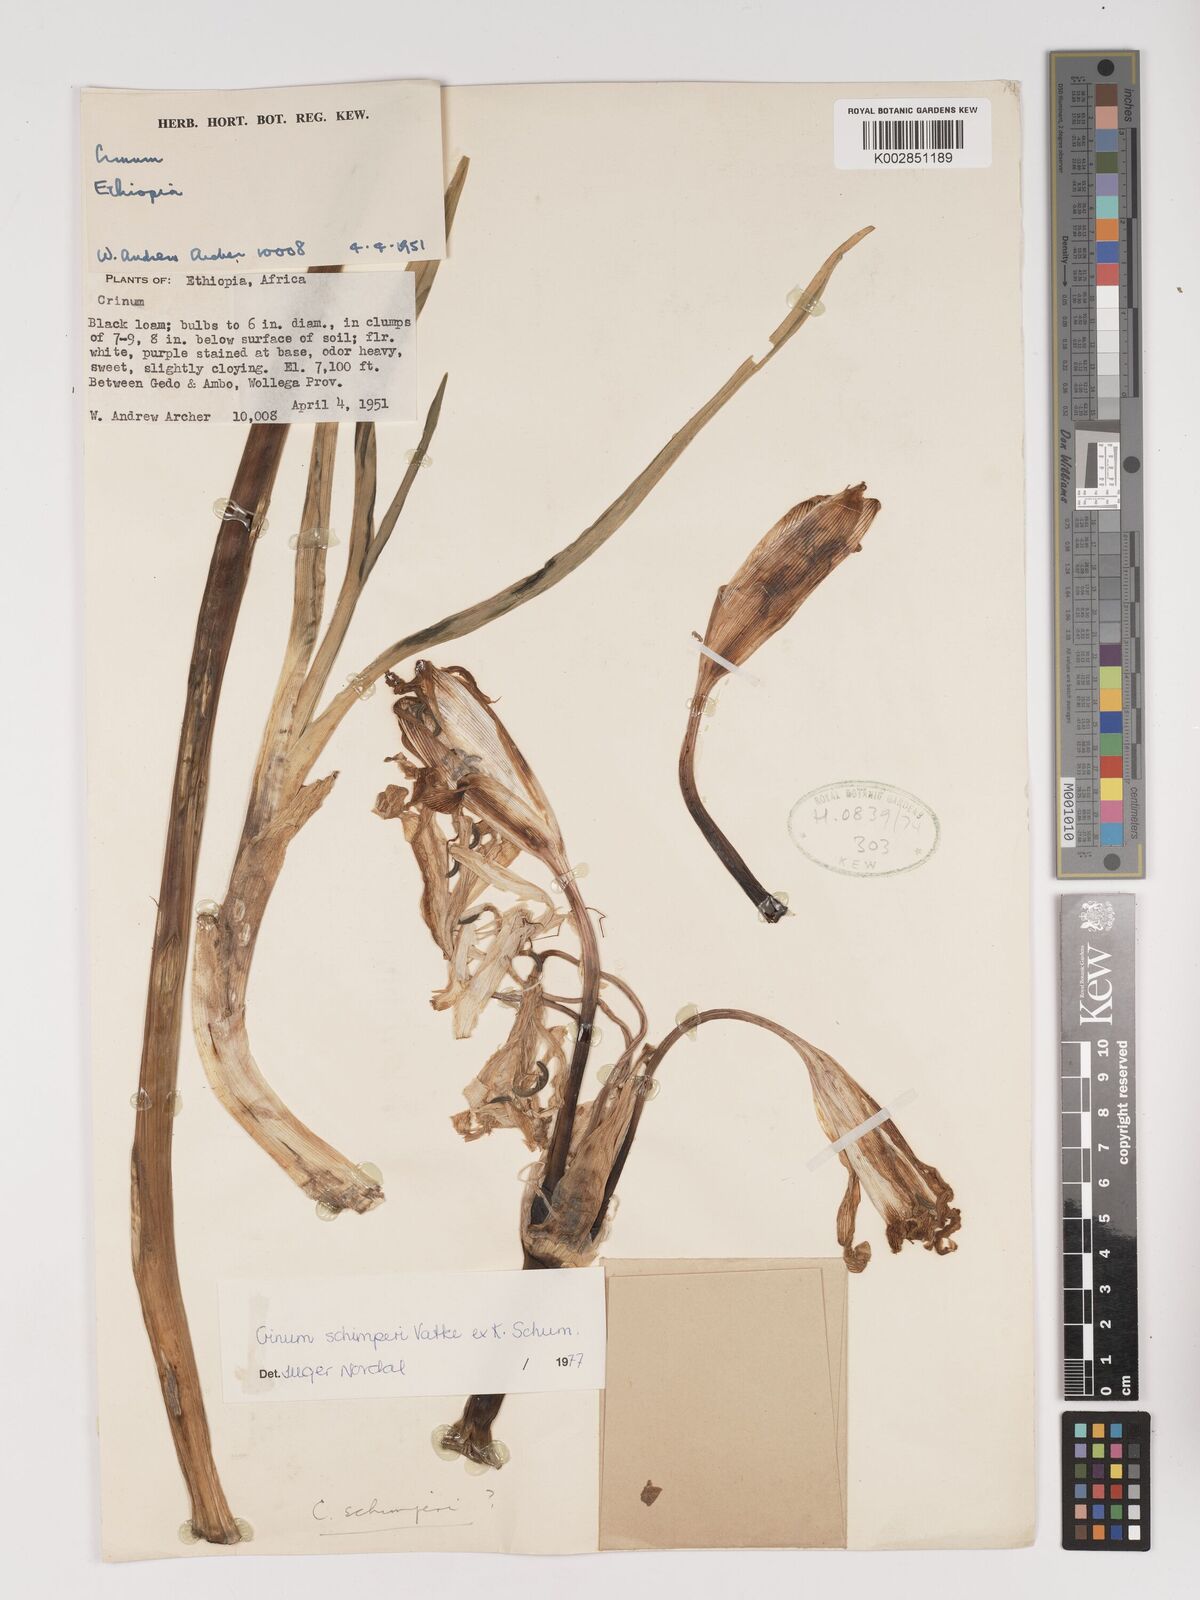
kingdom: Plantae
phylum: Tracheophyta
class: Liliopsida
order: Asparagales
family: Amaryllidaceae
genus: Crinum
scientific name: Crinum abyssinicum
